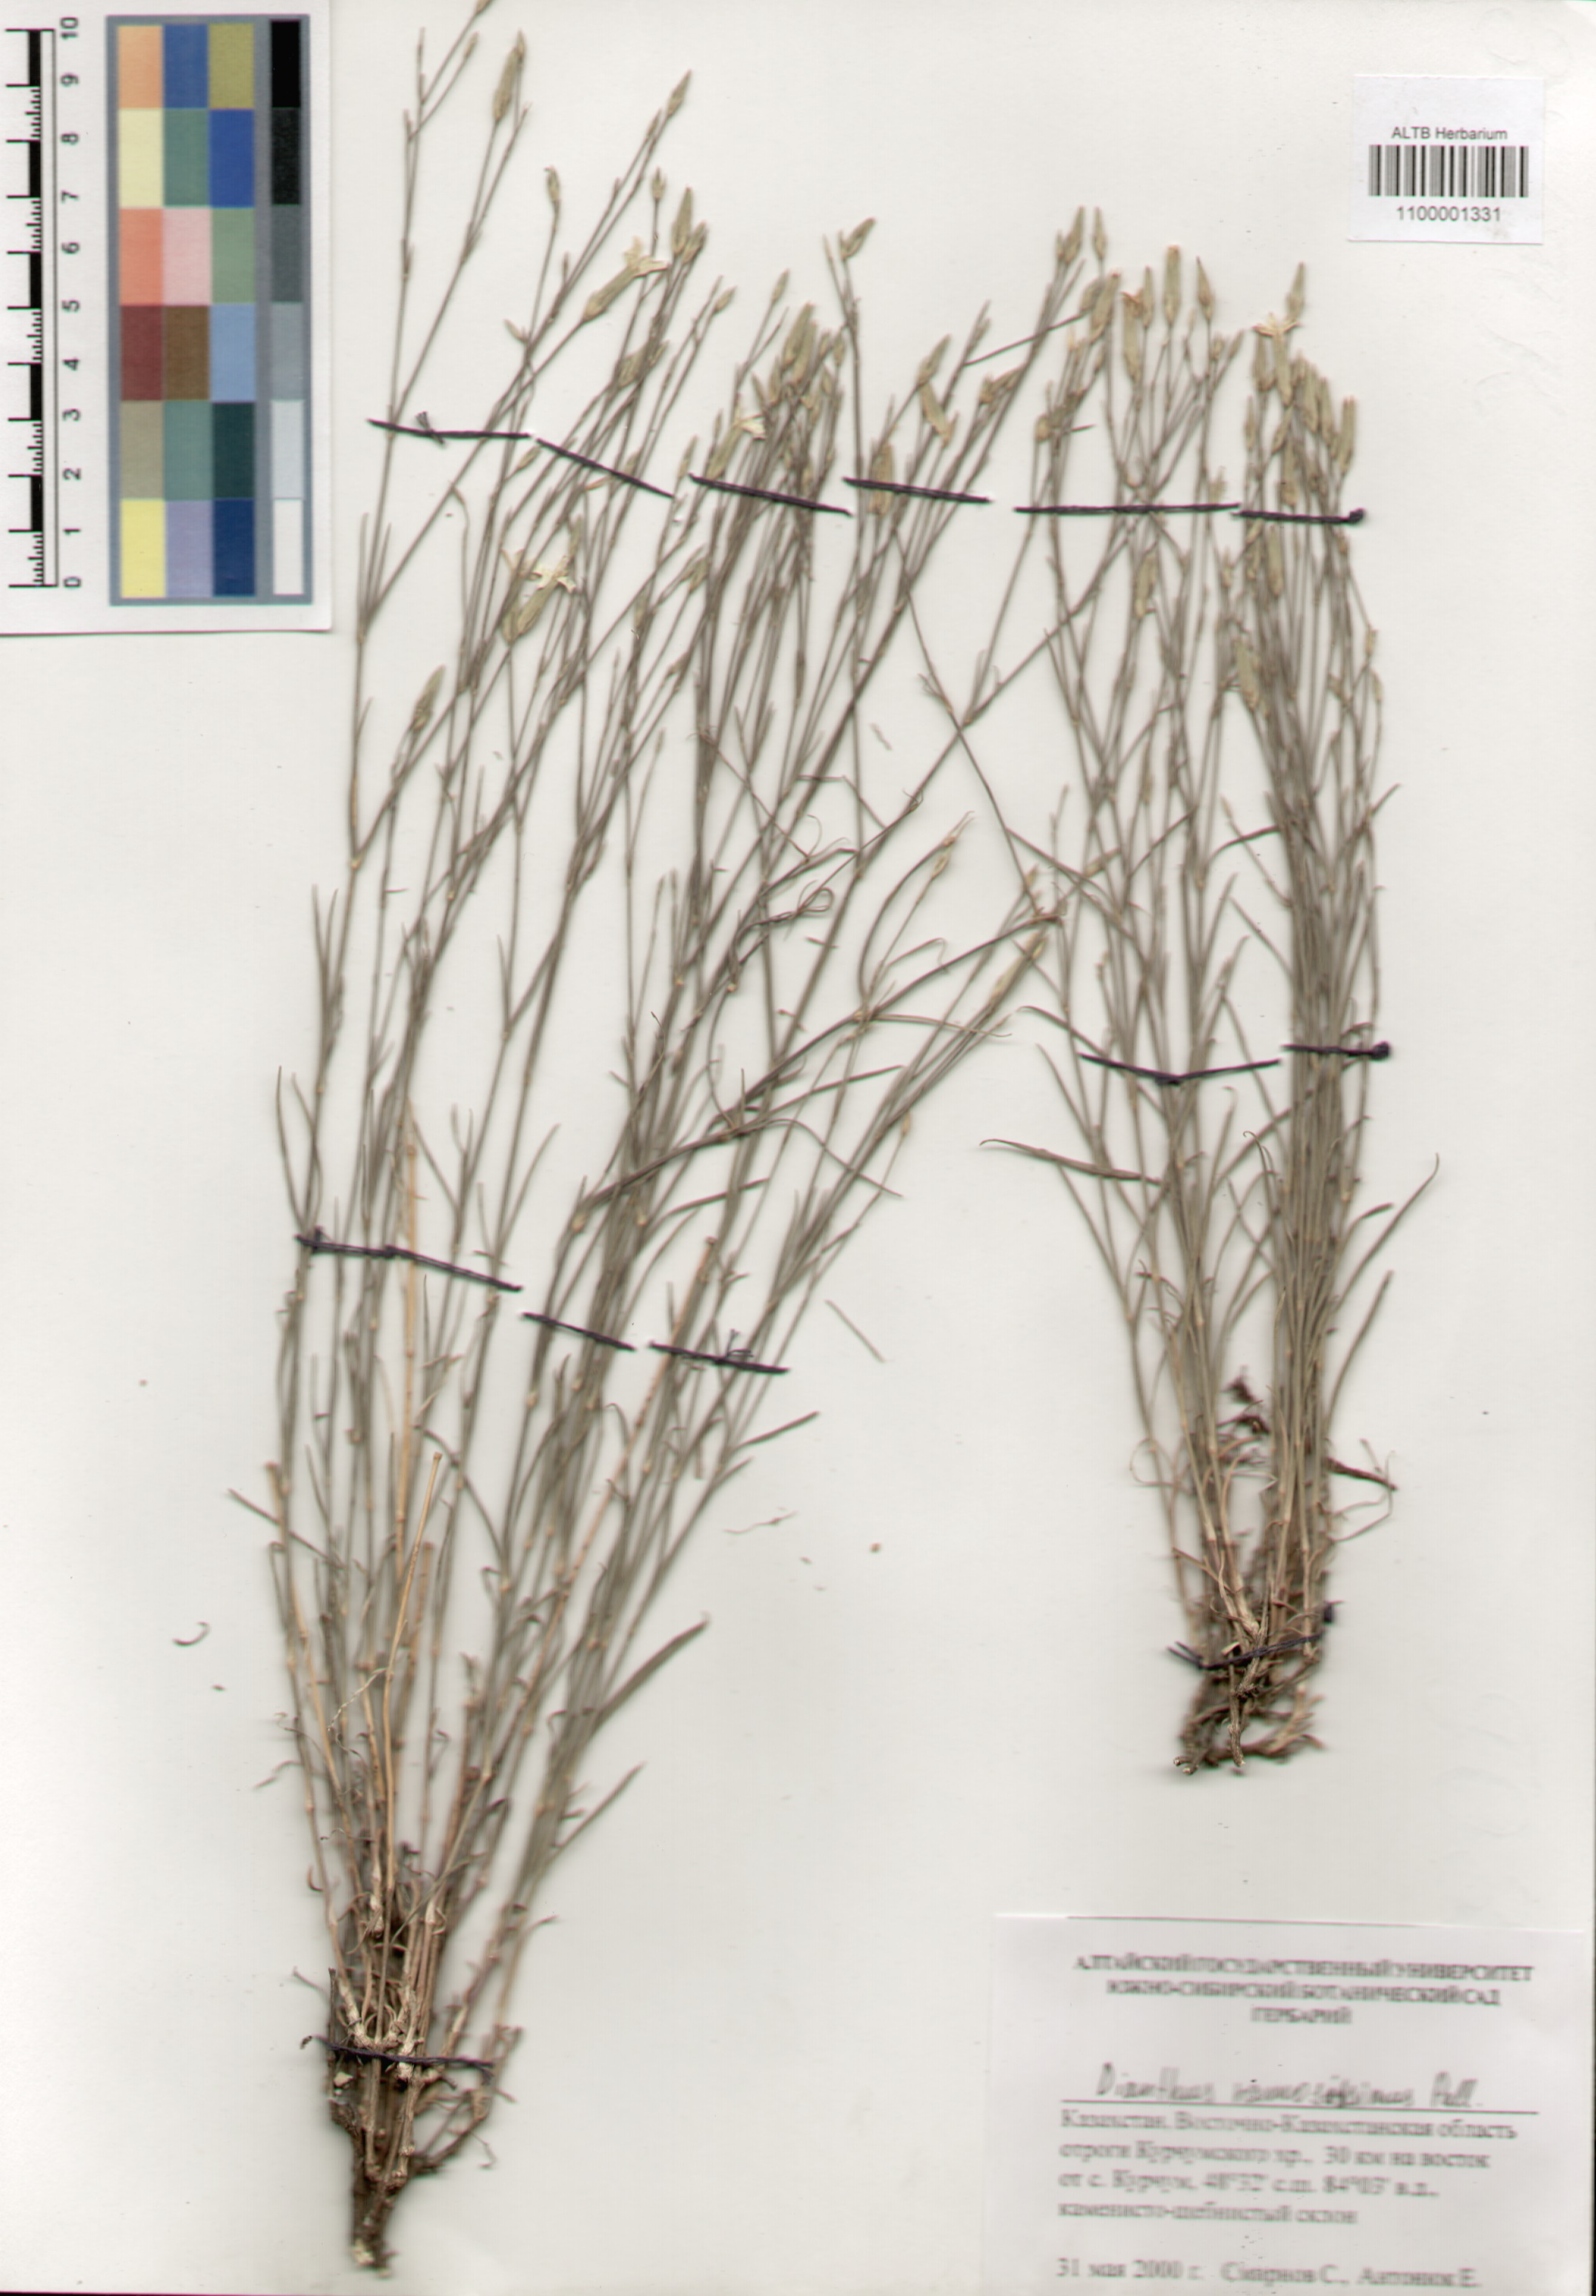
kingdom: Plantae
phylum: Tracheophyta
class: Magnoliopsida
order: Caryophyllales
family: Caryophyllaceae
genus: Dianthus
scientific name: Dianthus ramosissimus
